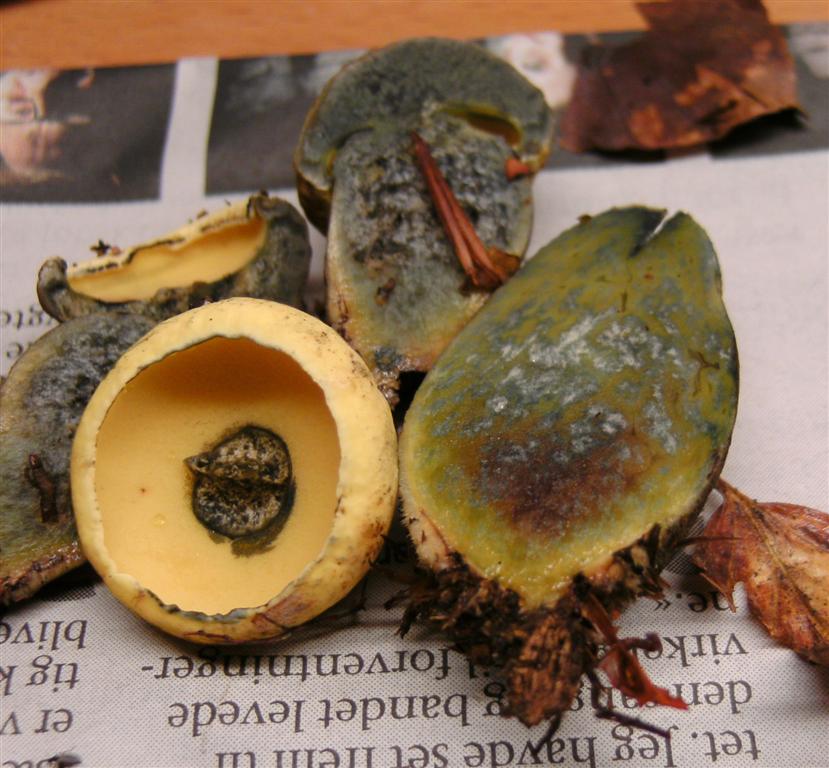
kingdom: Fungi
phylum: Basidiomycota
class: Agaricomycetes
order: Boletales
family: Boletaceae
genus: Neoboletus
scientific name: Neoboletus praestigiator
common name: gul indigorørhat
